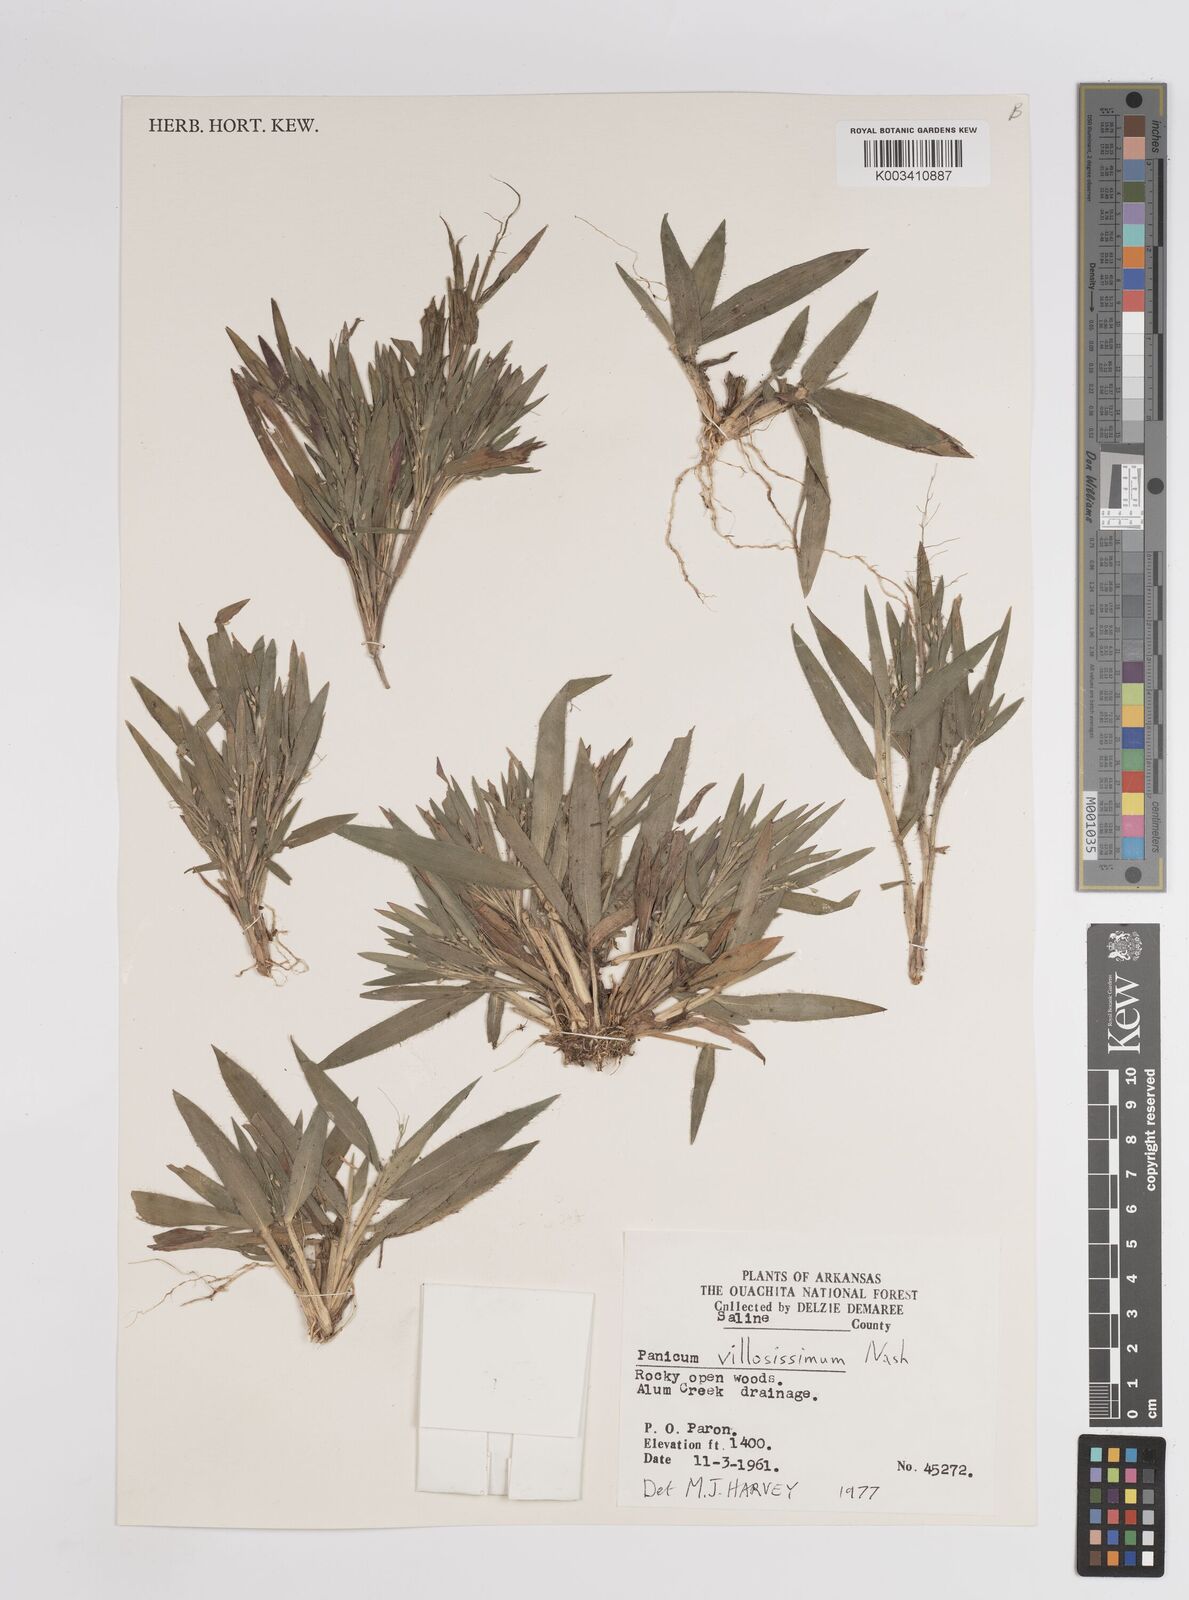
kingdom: Plantae
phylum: Tracheophyta
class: Liliopsida
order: Poales
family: Poaceae
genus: Dichanthelium
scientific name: Dichanthelium villosissimum
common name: White-haired panicgrass
